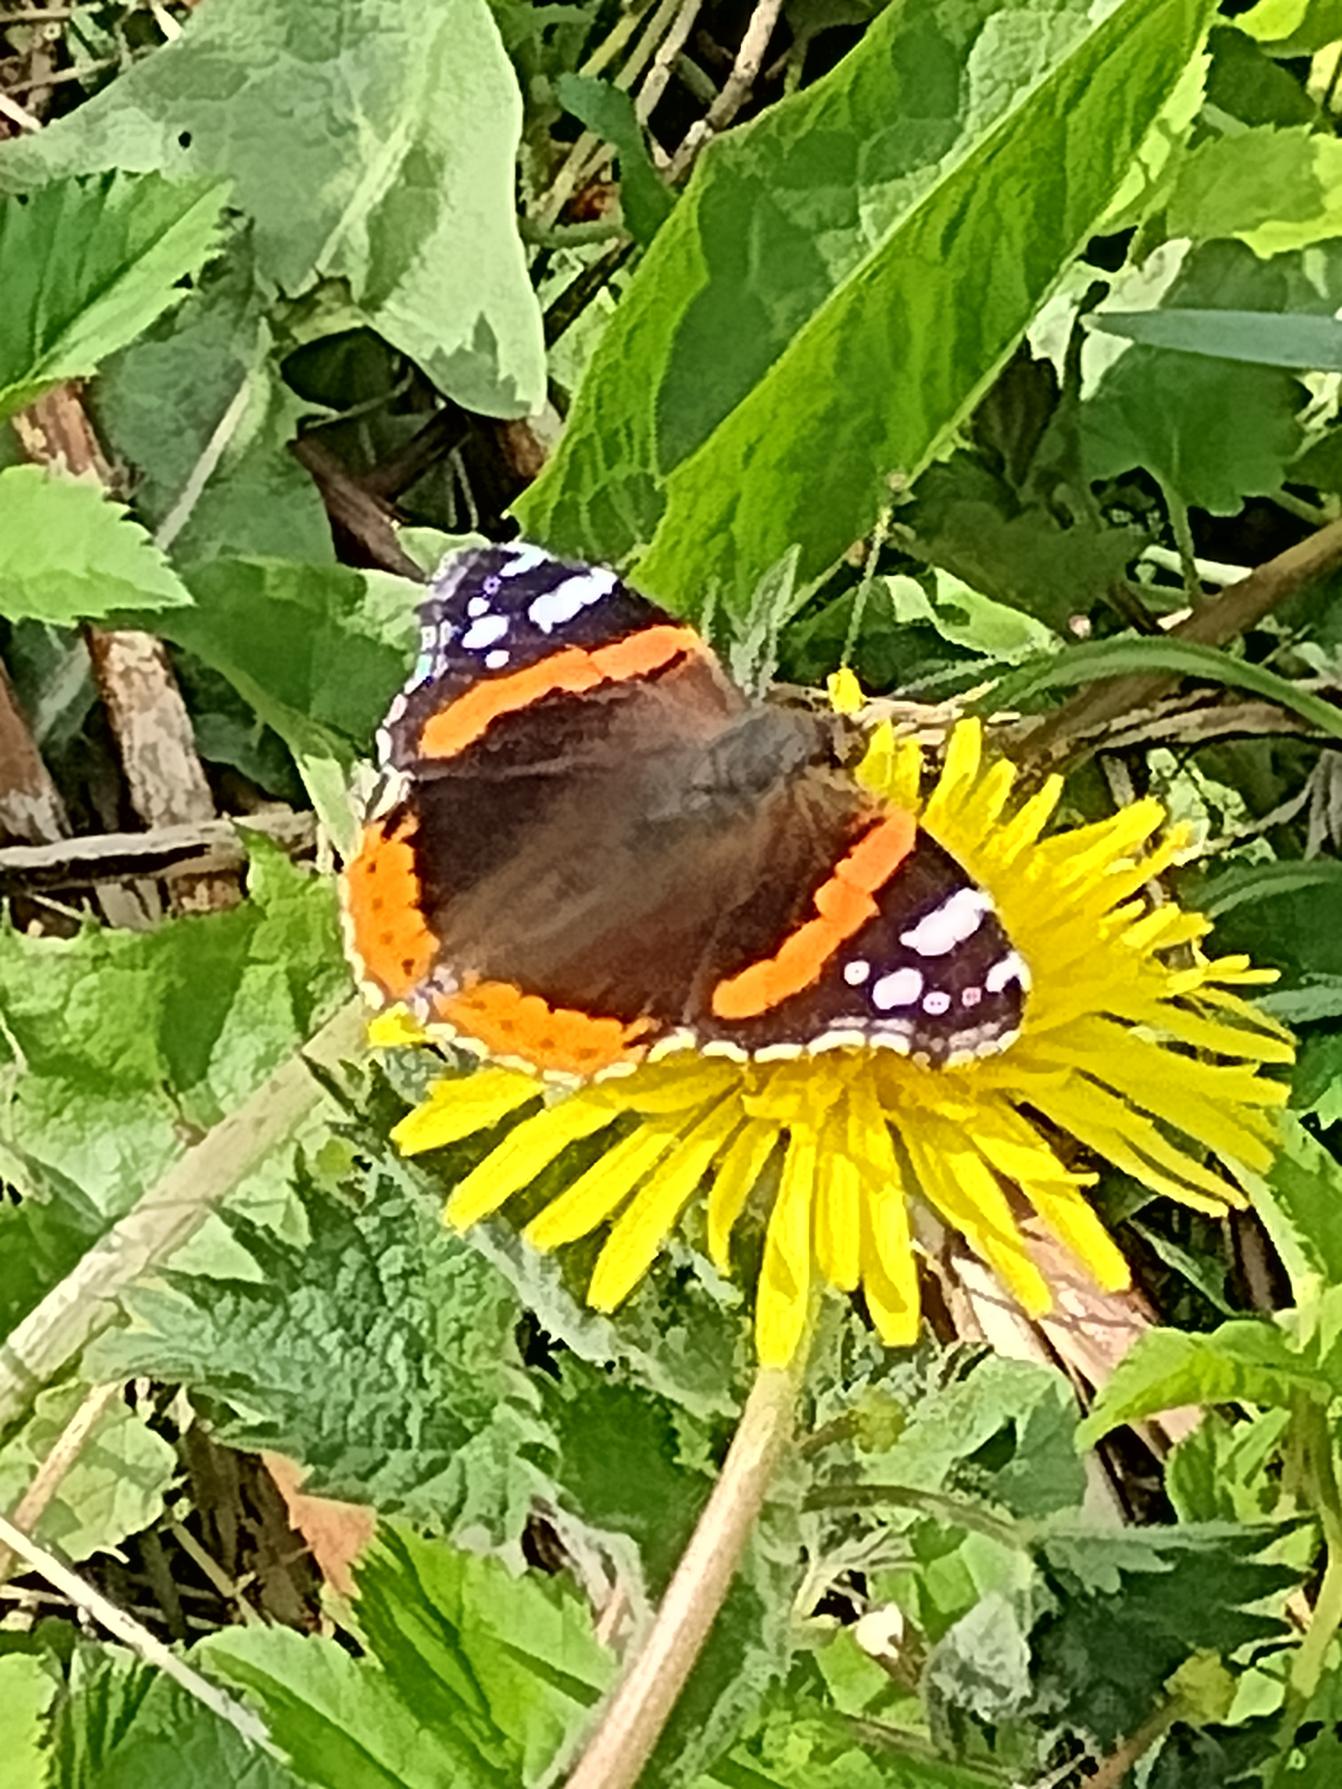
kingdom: Animalia
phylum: Arthropoda
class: Insecta
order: Lepidoptera
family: Nymphalidae
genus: Vanessa
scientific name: Vanessa atalanta
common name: Admiral
